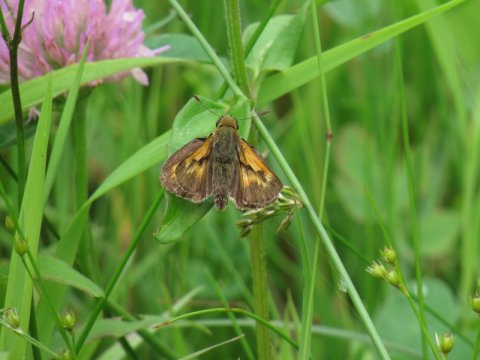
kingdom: Animalia
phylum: Arthropoda
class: Insecta
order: Lepidoptera
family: Hesperiidae
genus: Polites
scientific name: Polites
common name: Long Dash Skipper
